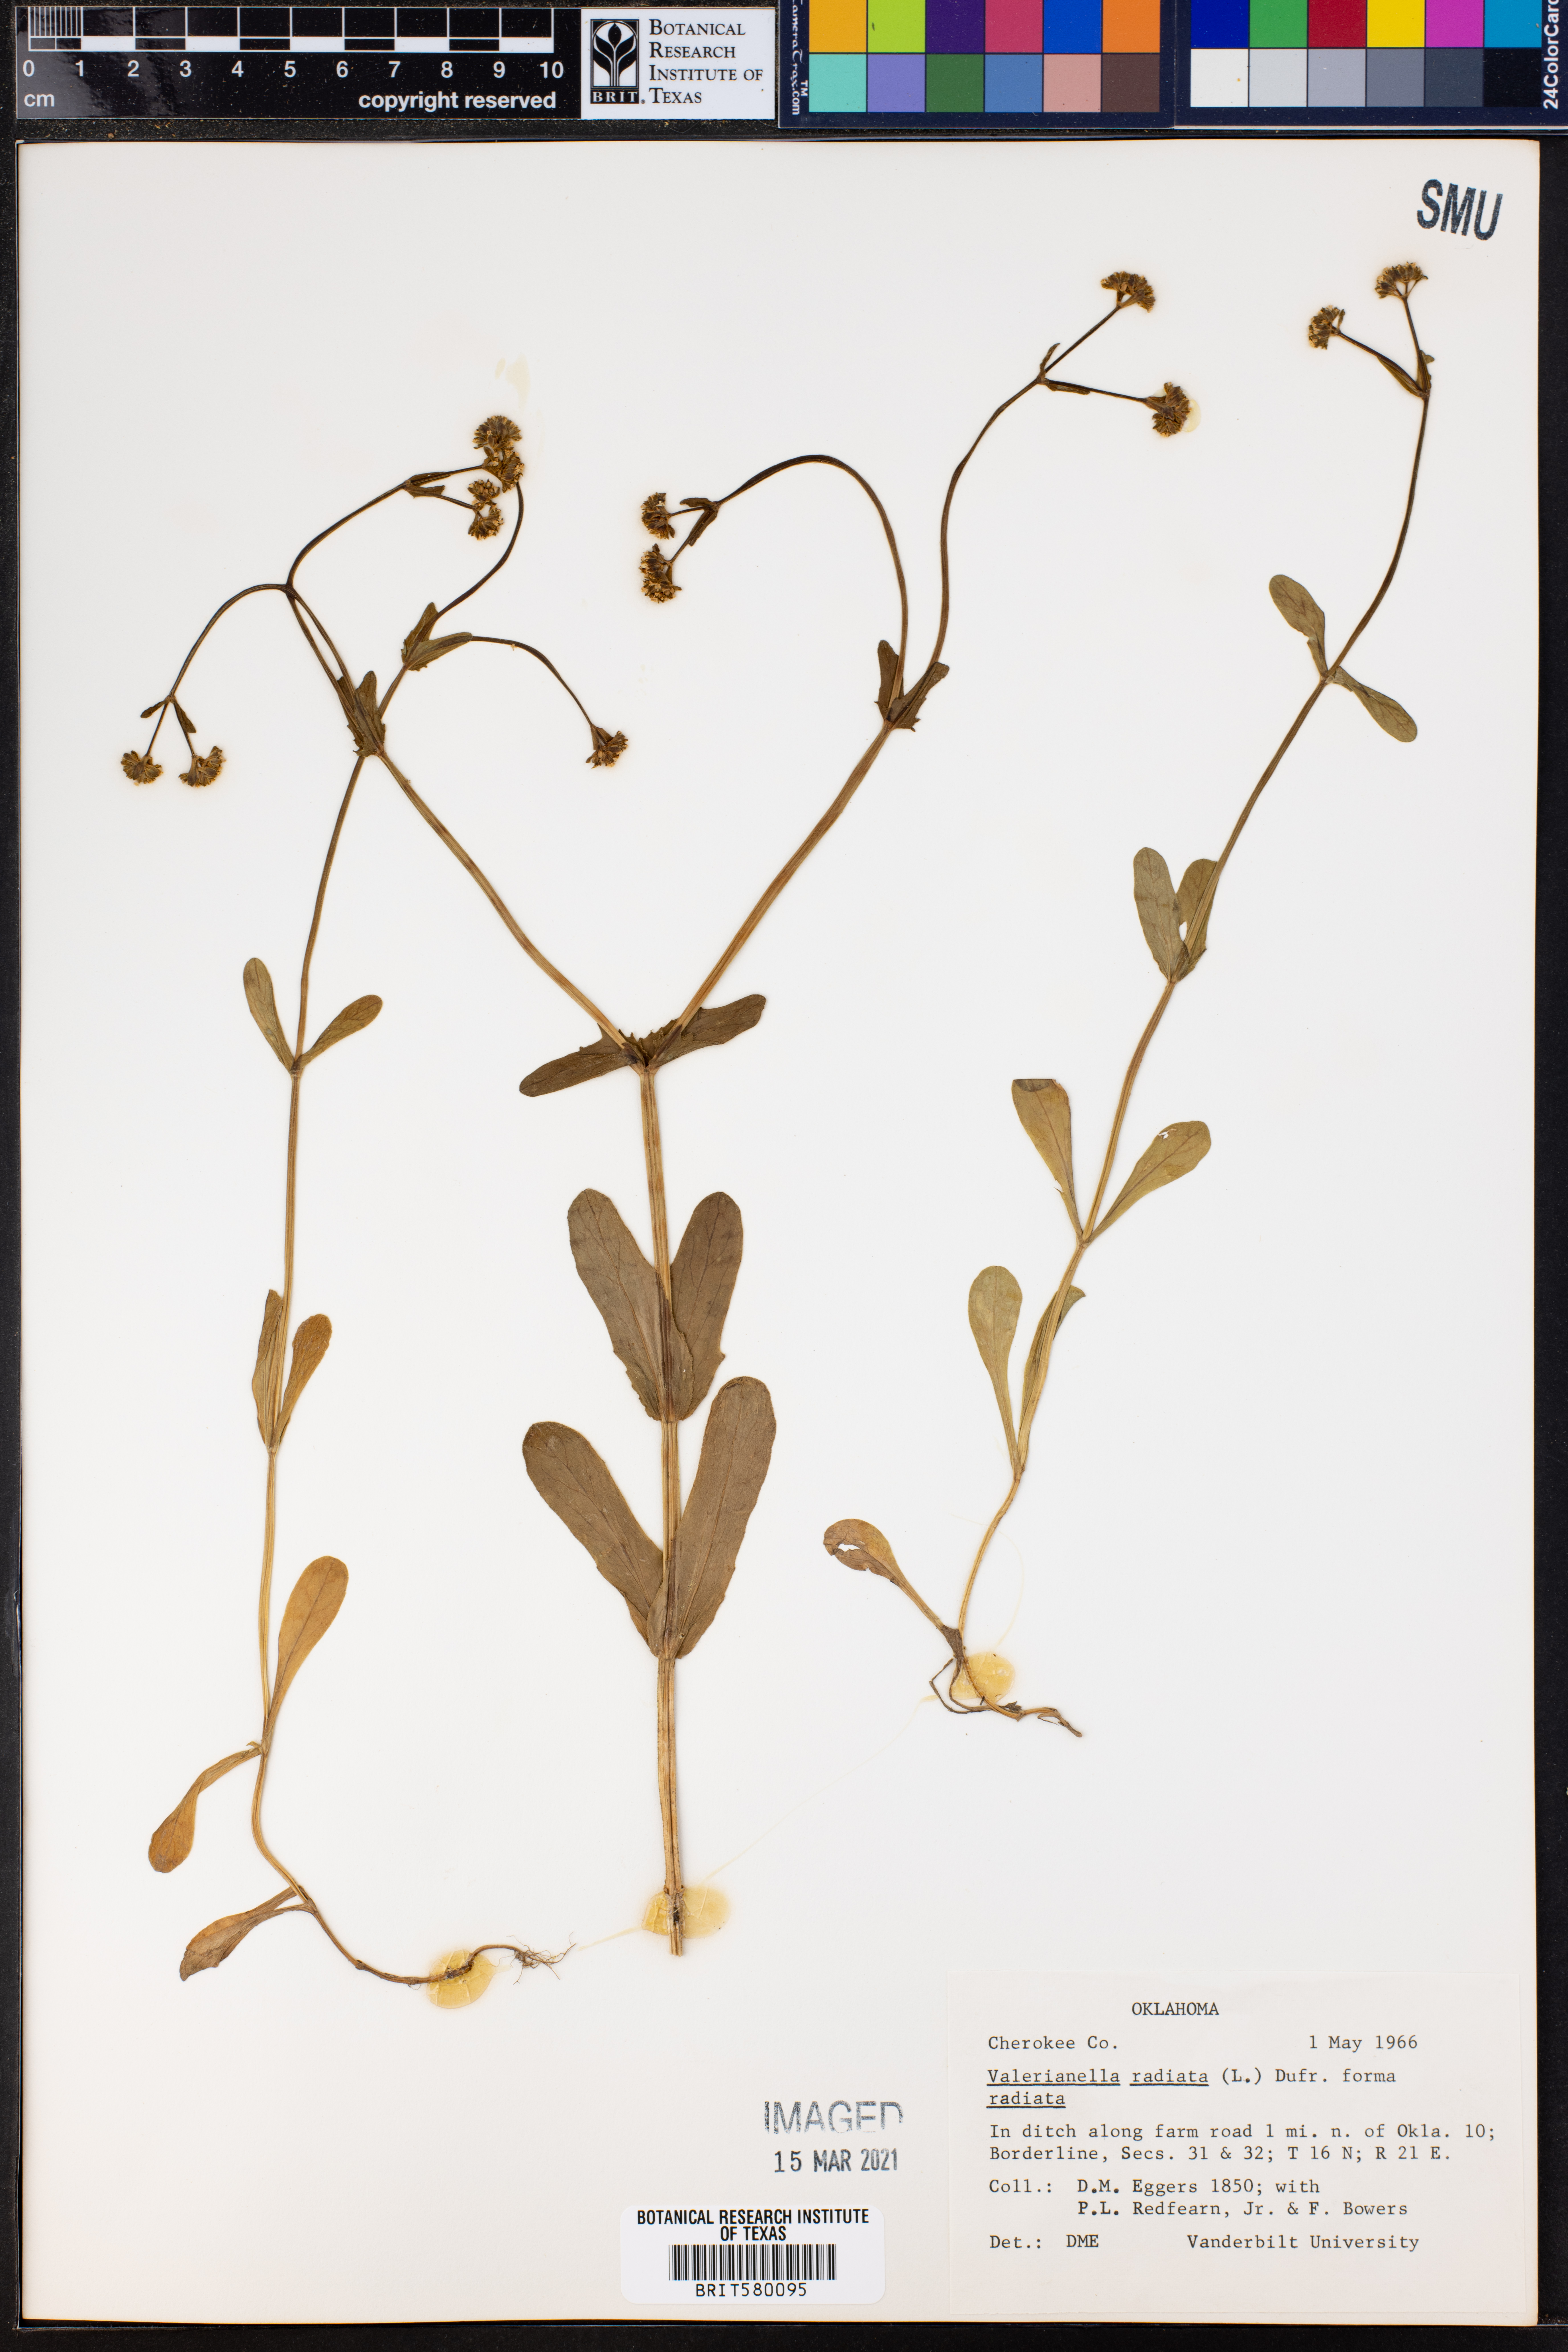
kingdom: Plantae
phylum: Tracheophyta
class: Magnoliopsida
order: Dipsacales
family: Caprifoliaceae
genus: Valerianella
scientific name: Valerianella radiata
